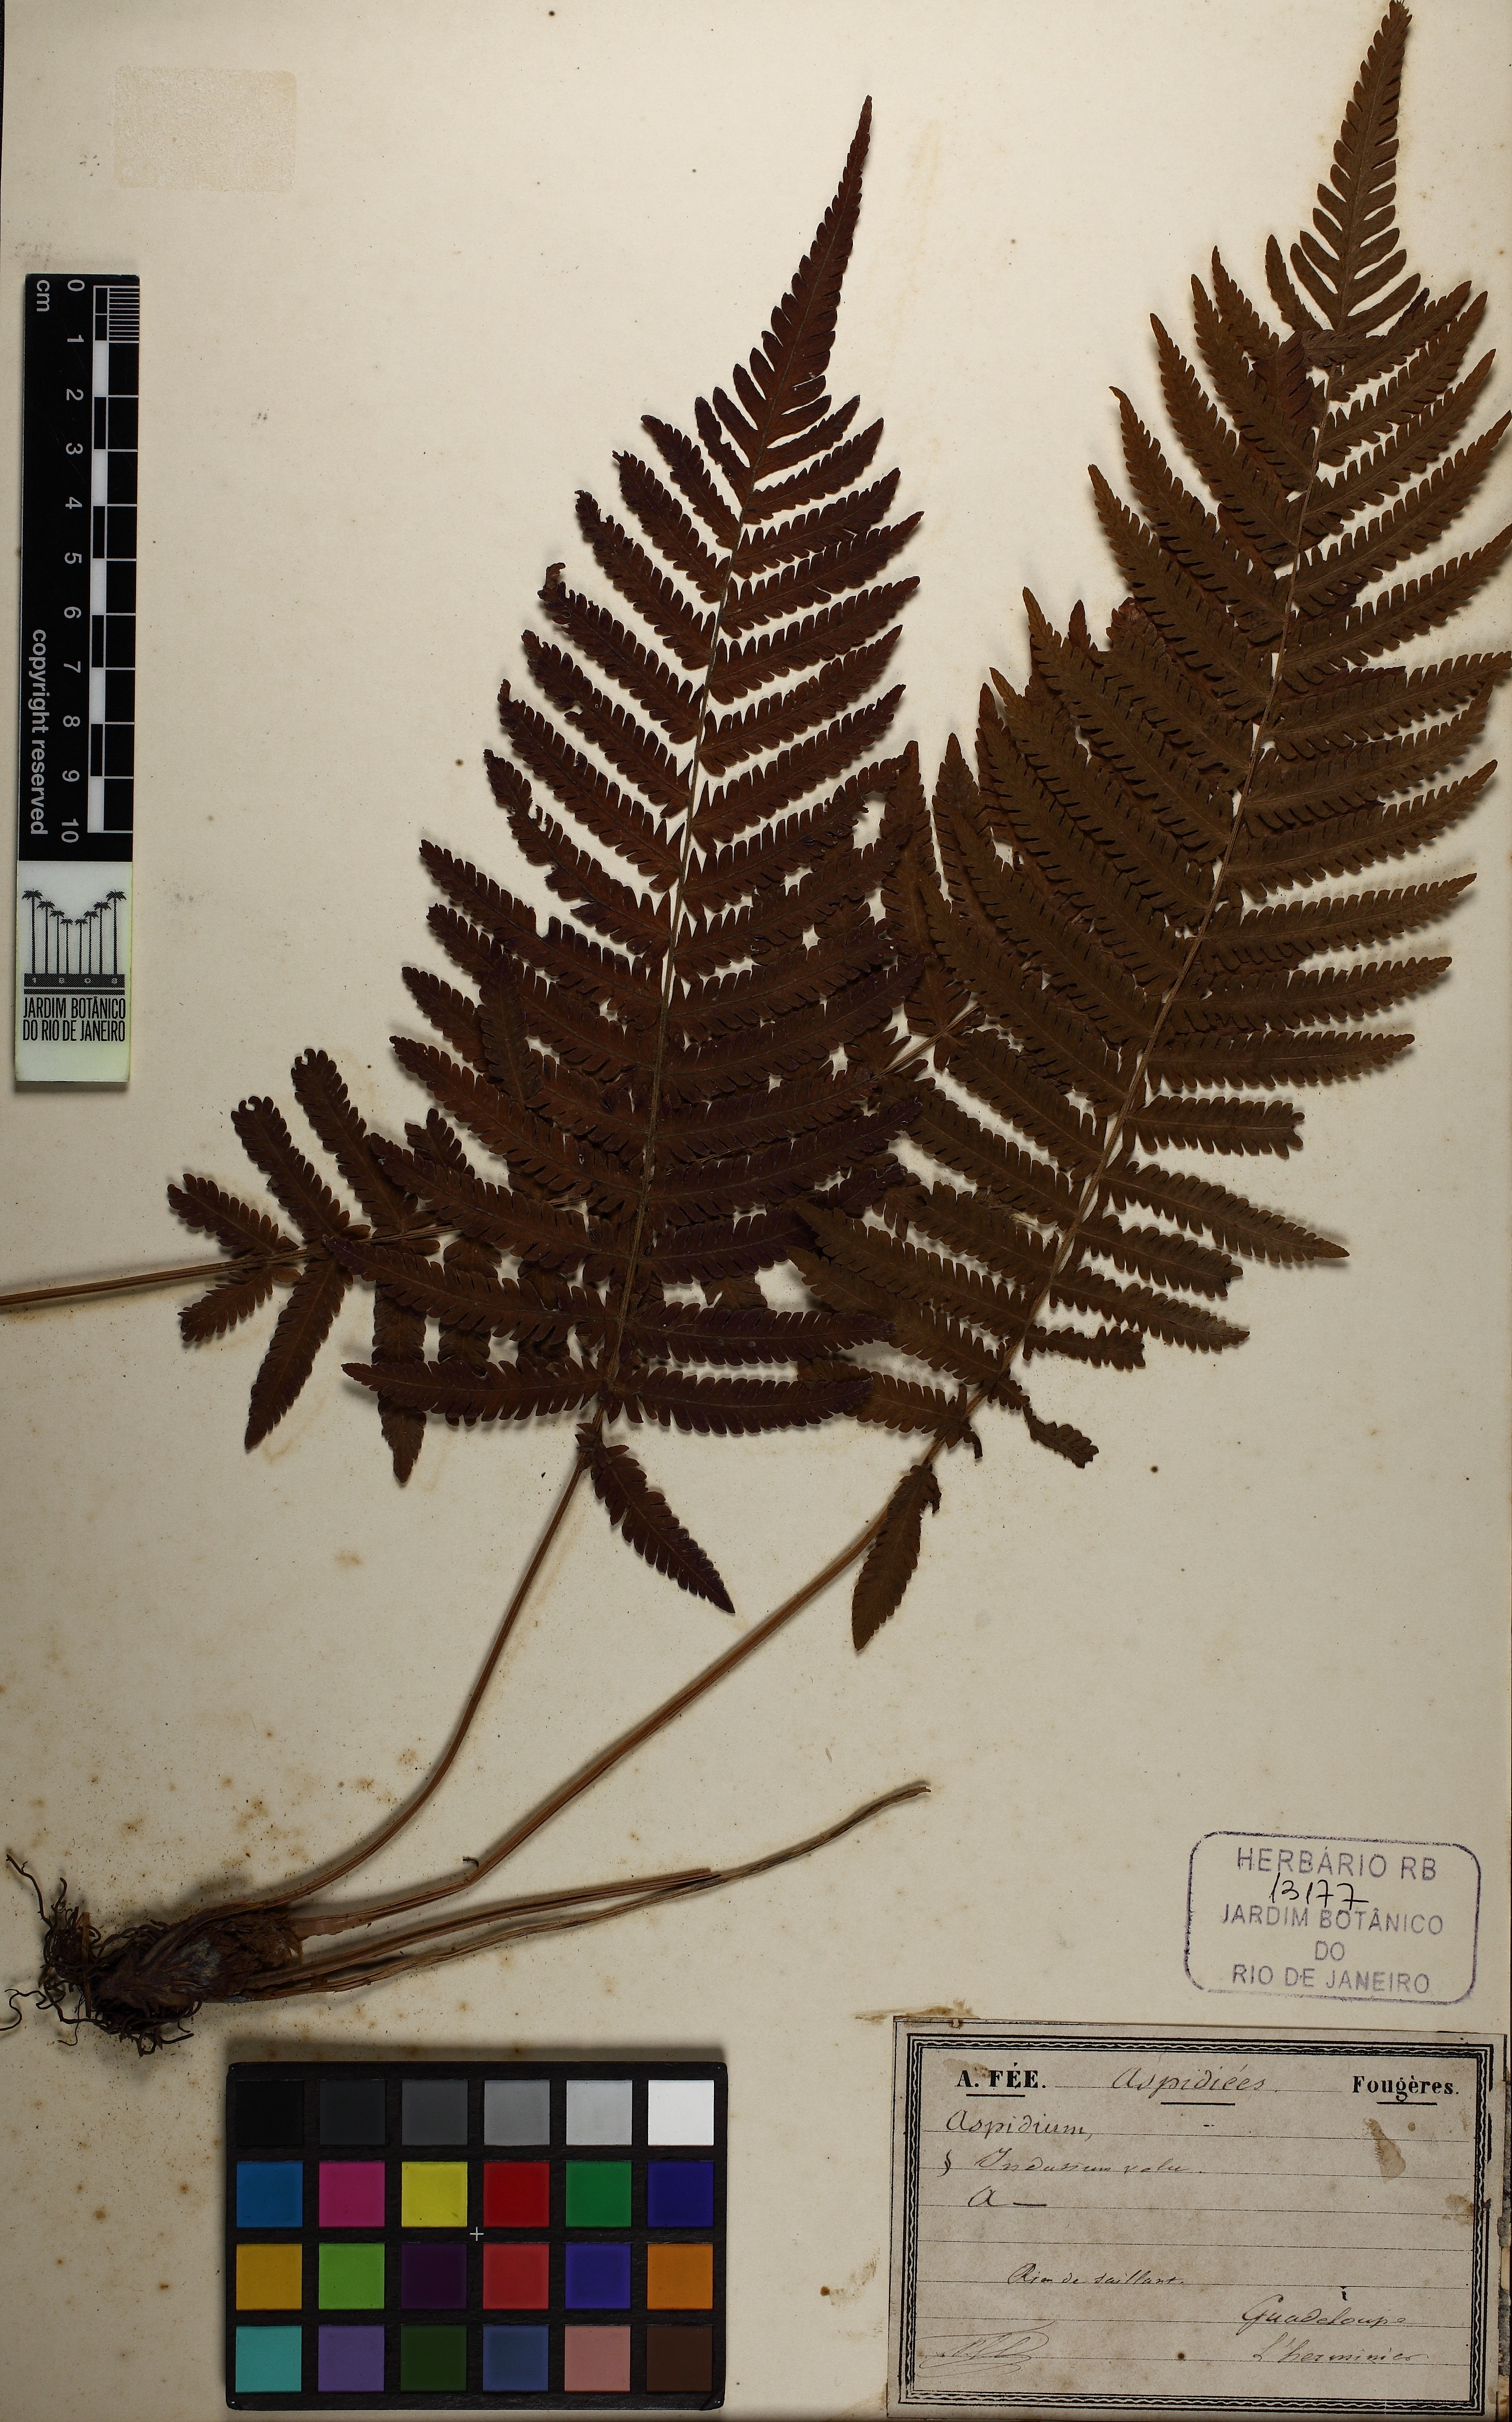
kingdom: Plantae
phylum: Tracheophyta
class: Polypodiopsida
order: Polypodiales
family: Tectariaceae
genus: Tectaria
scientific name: Tectaria Aspidium spec
